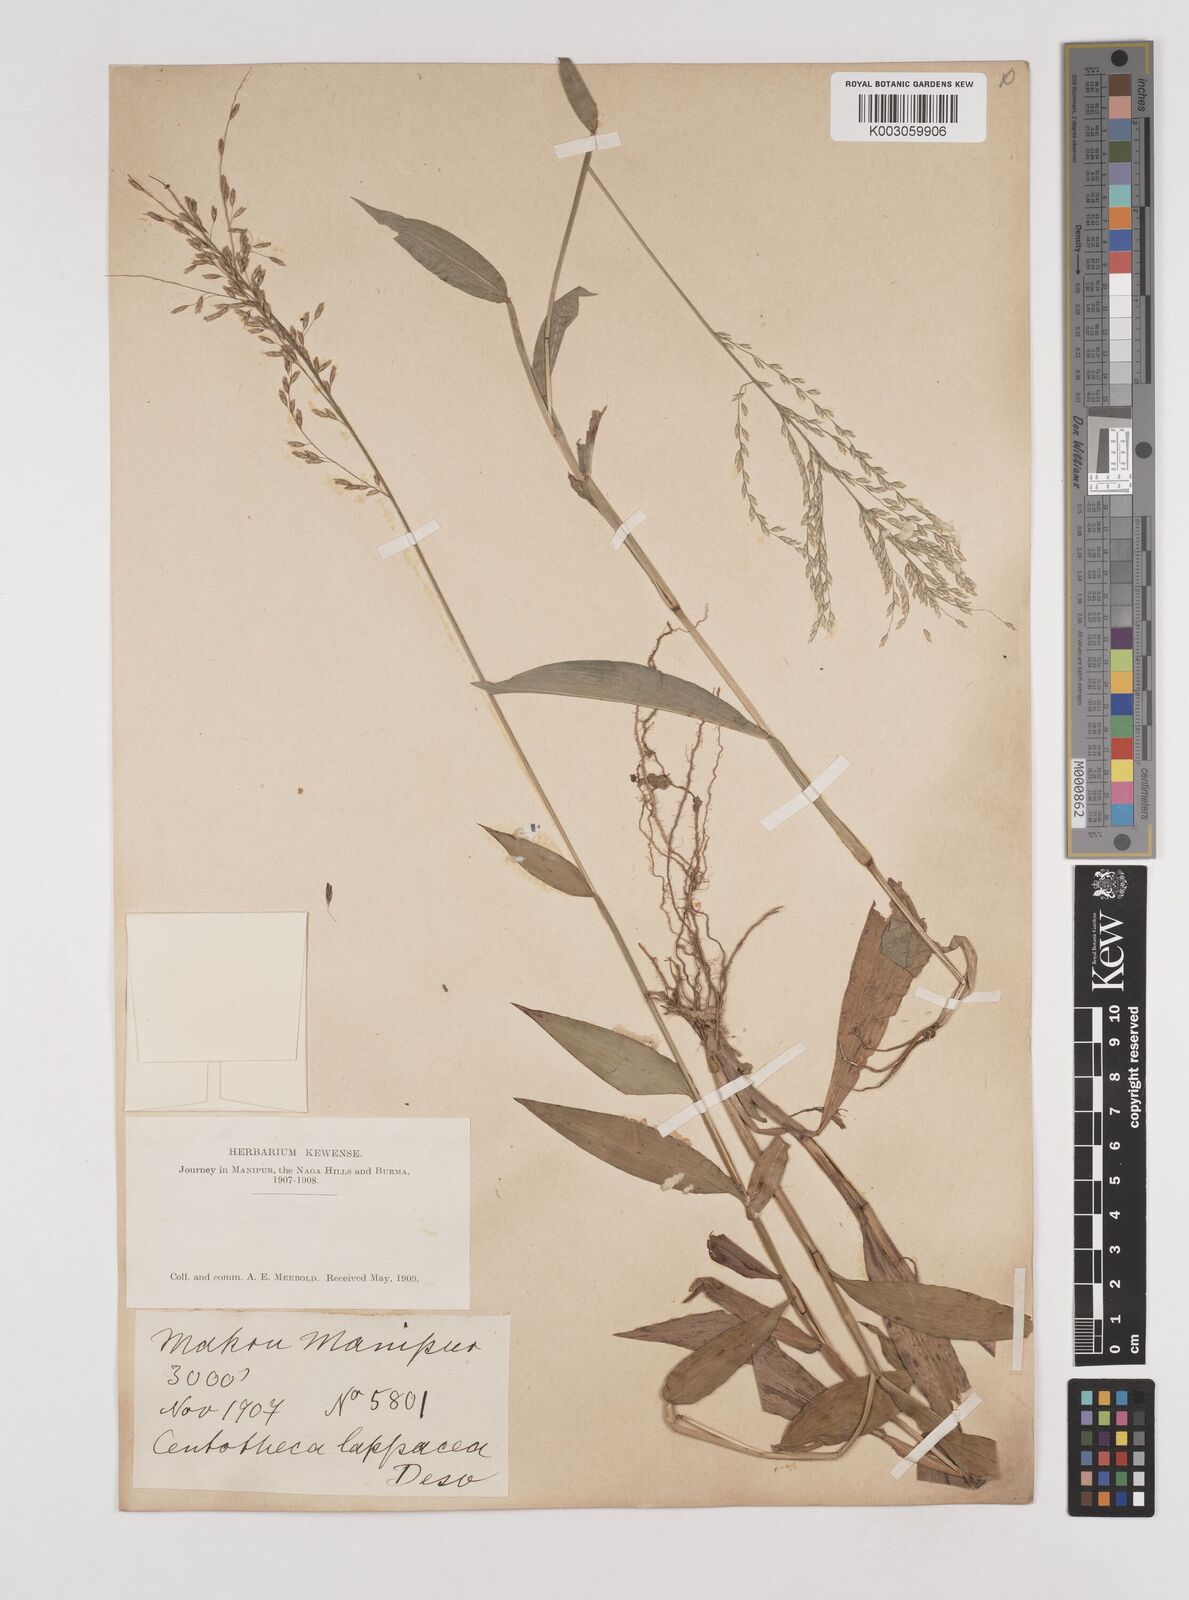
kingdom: Plantae
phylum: Tracheophyta
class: Liliopsida
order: Poales
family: Poaceae
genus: Centotheca
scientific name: Centotheca lappacea
